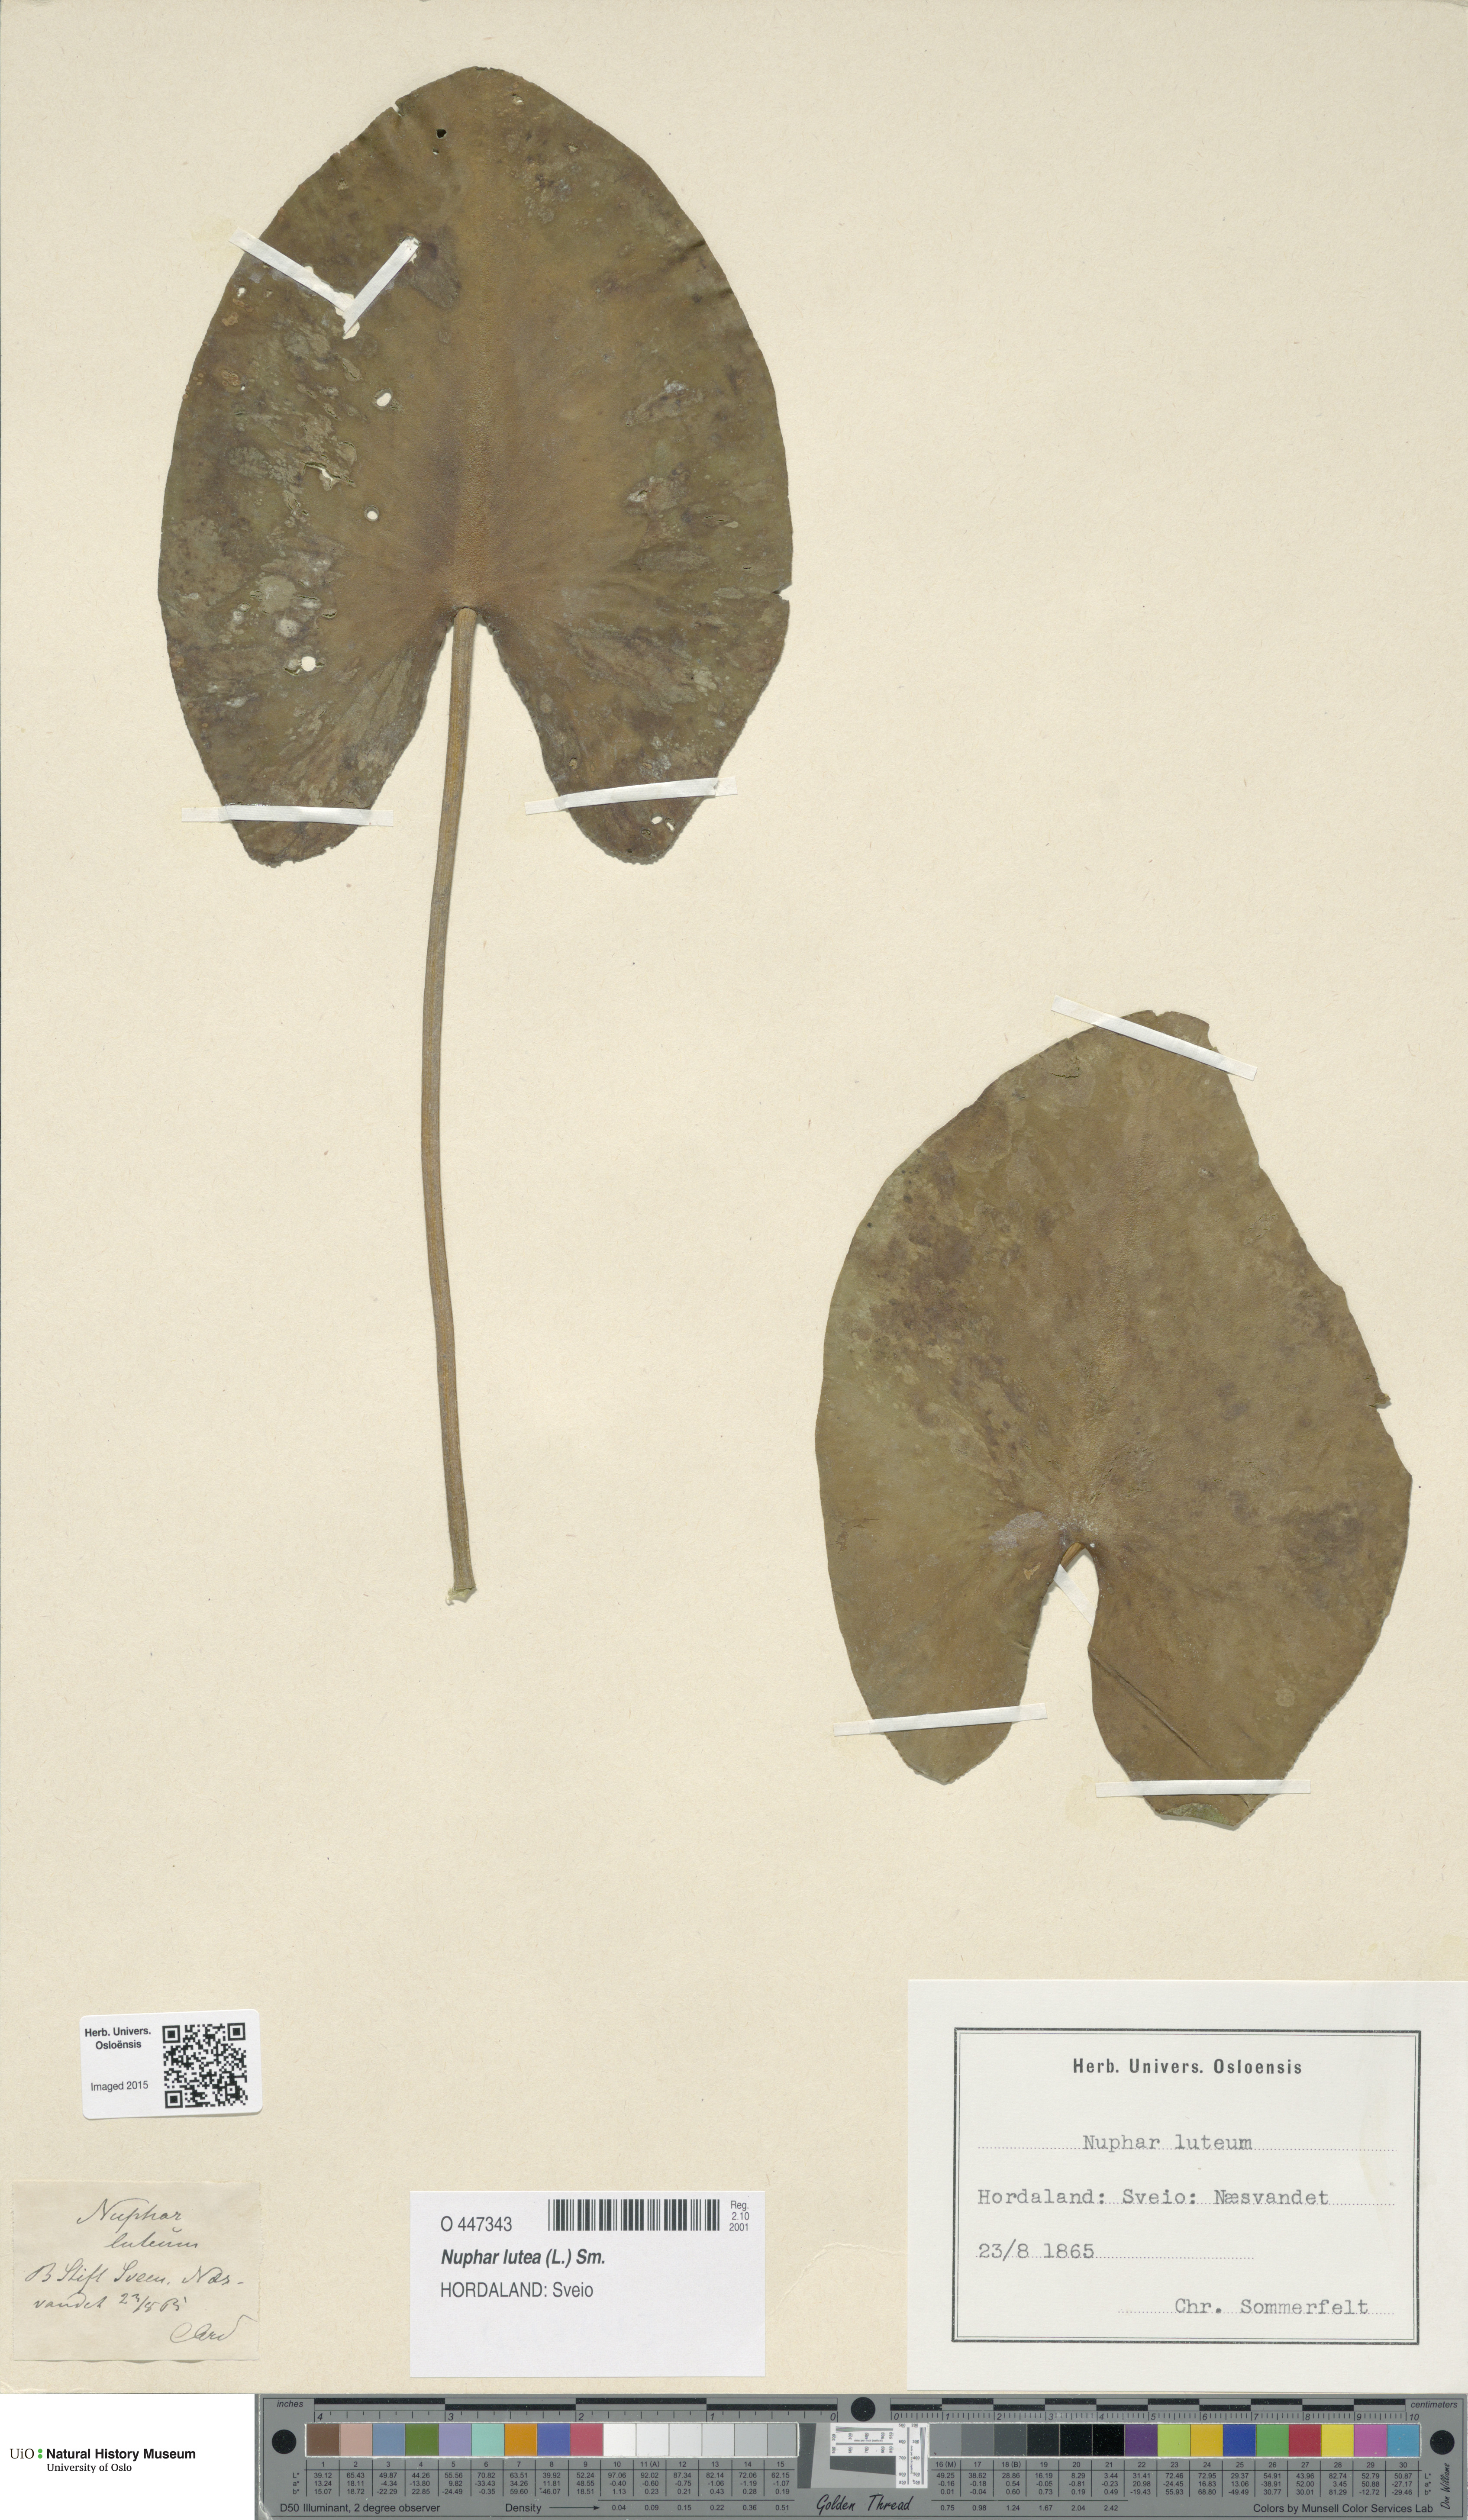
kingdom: Plantae
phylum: Tracheophyta
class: Magnoliopsida
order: Nymphaeales
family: Nymphaeaceae
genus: Nuphar
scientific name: Nuphar lutea
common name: Yellow water-lily
